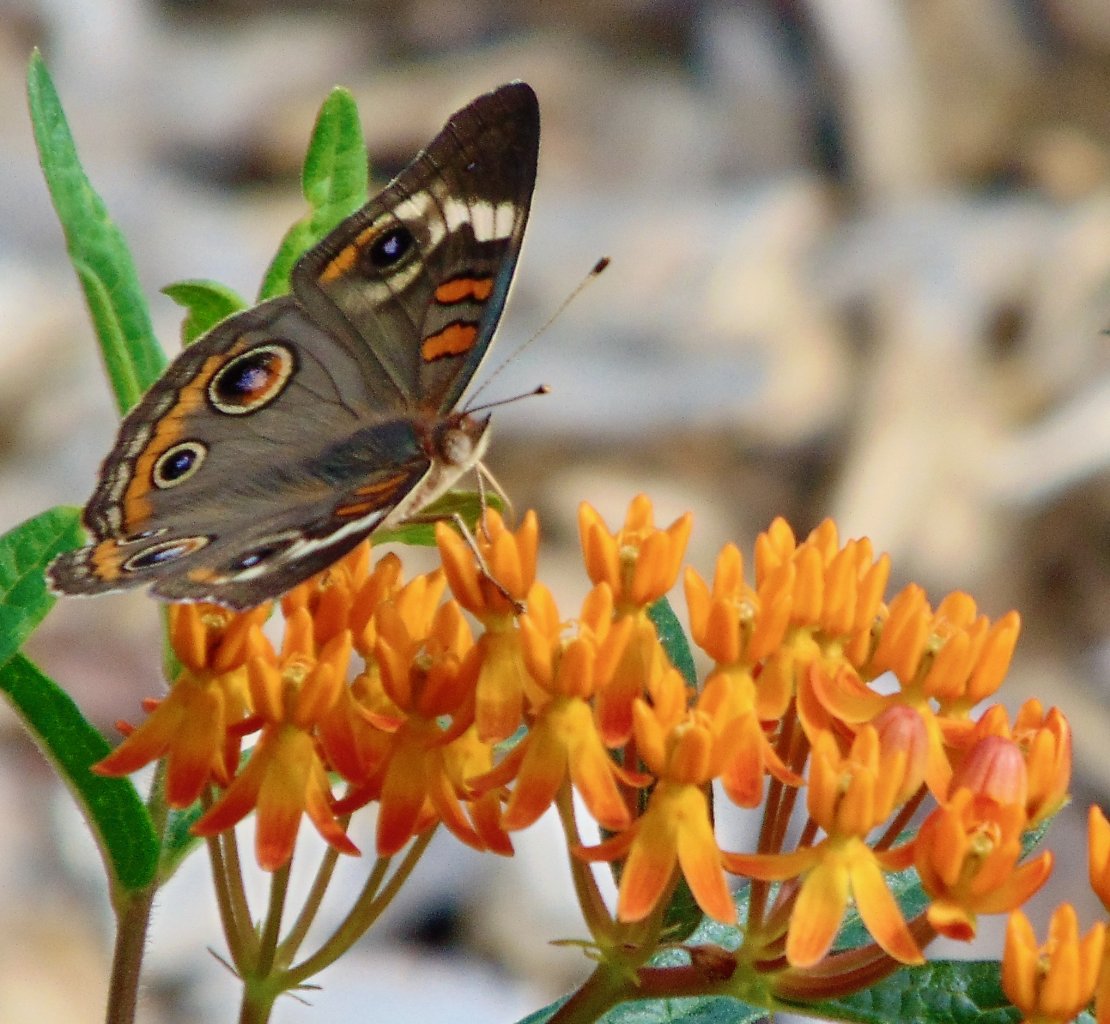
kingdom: Animalia
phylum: Arthropoda
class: Insecta
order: Lepidoptera
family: Nymphalidae
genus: Junonia
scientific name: Junonia coenia
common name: Common Buckeye
